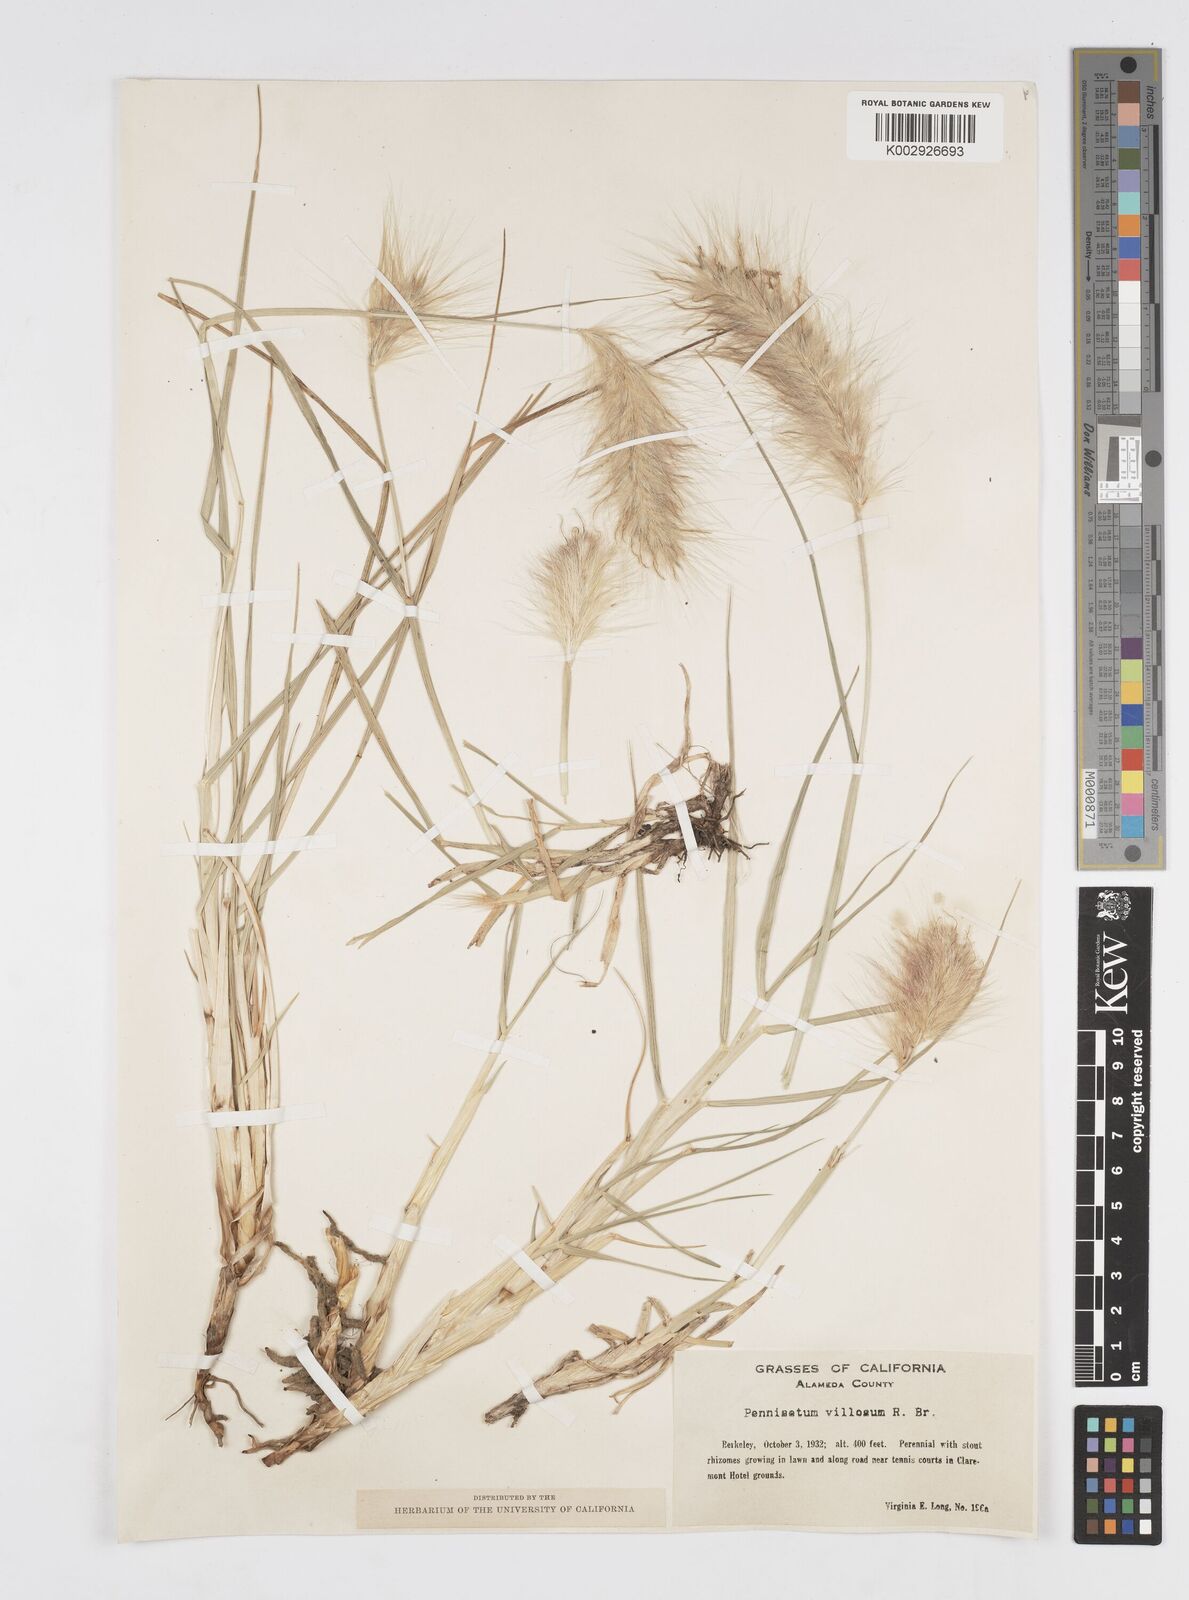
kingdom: Plantae
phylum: Tracheophyta
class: Liliopsida
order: Poales
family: Poaceae
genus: Cenchrus
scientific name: Cenchrus longisetus
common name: Feathertop
